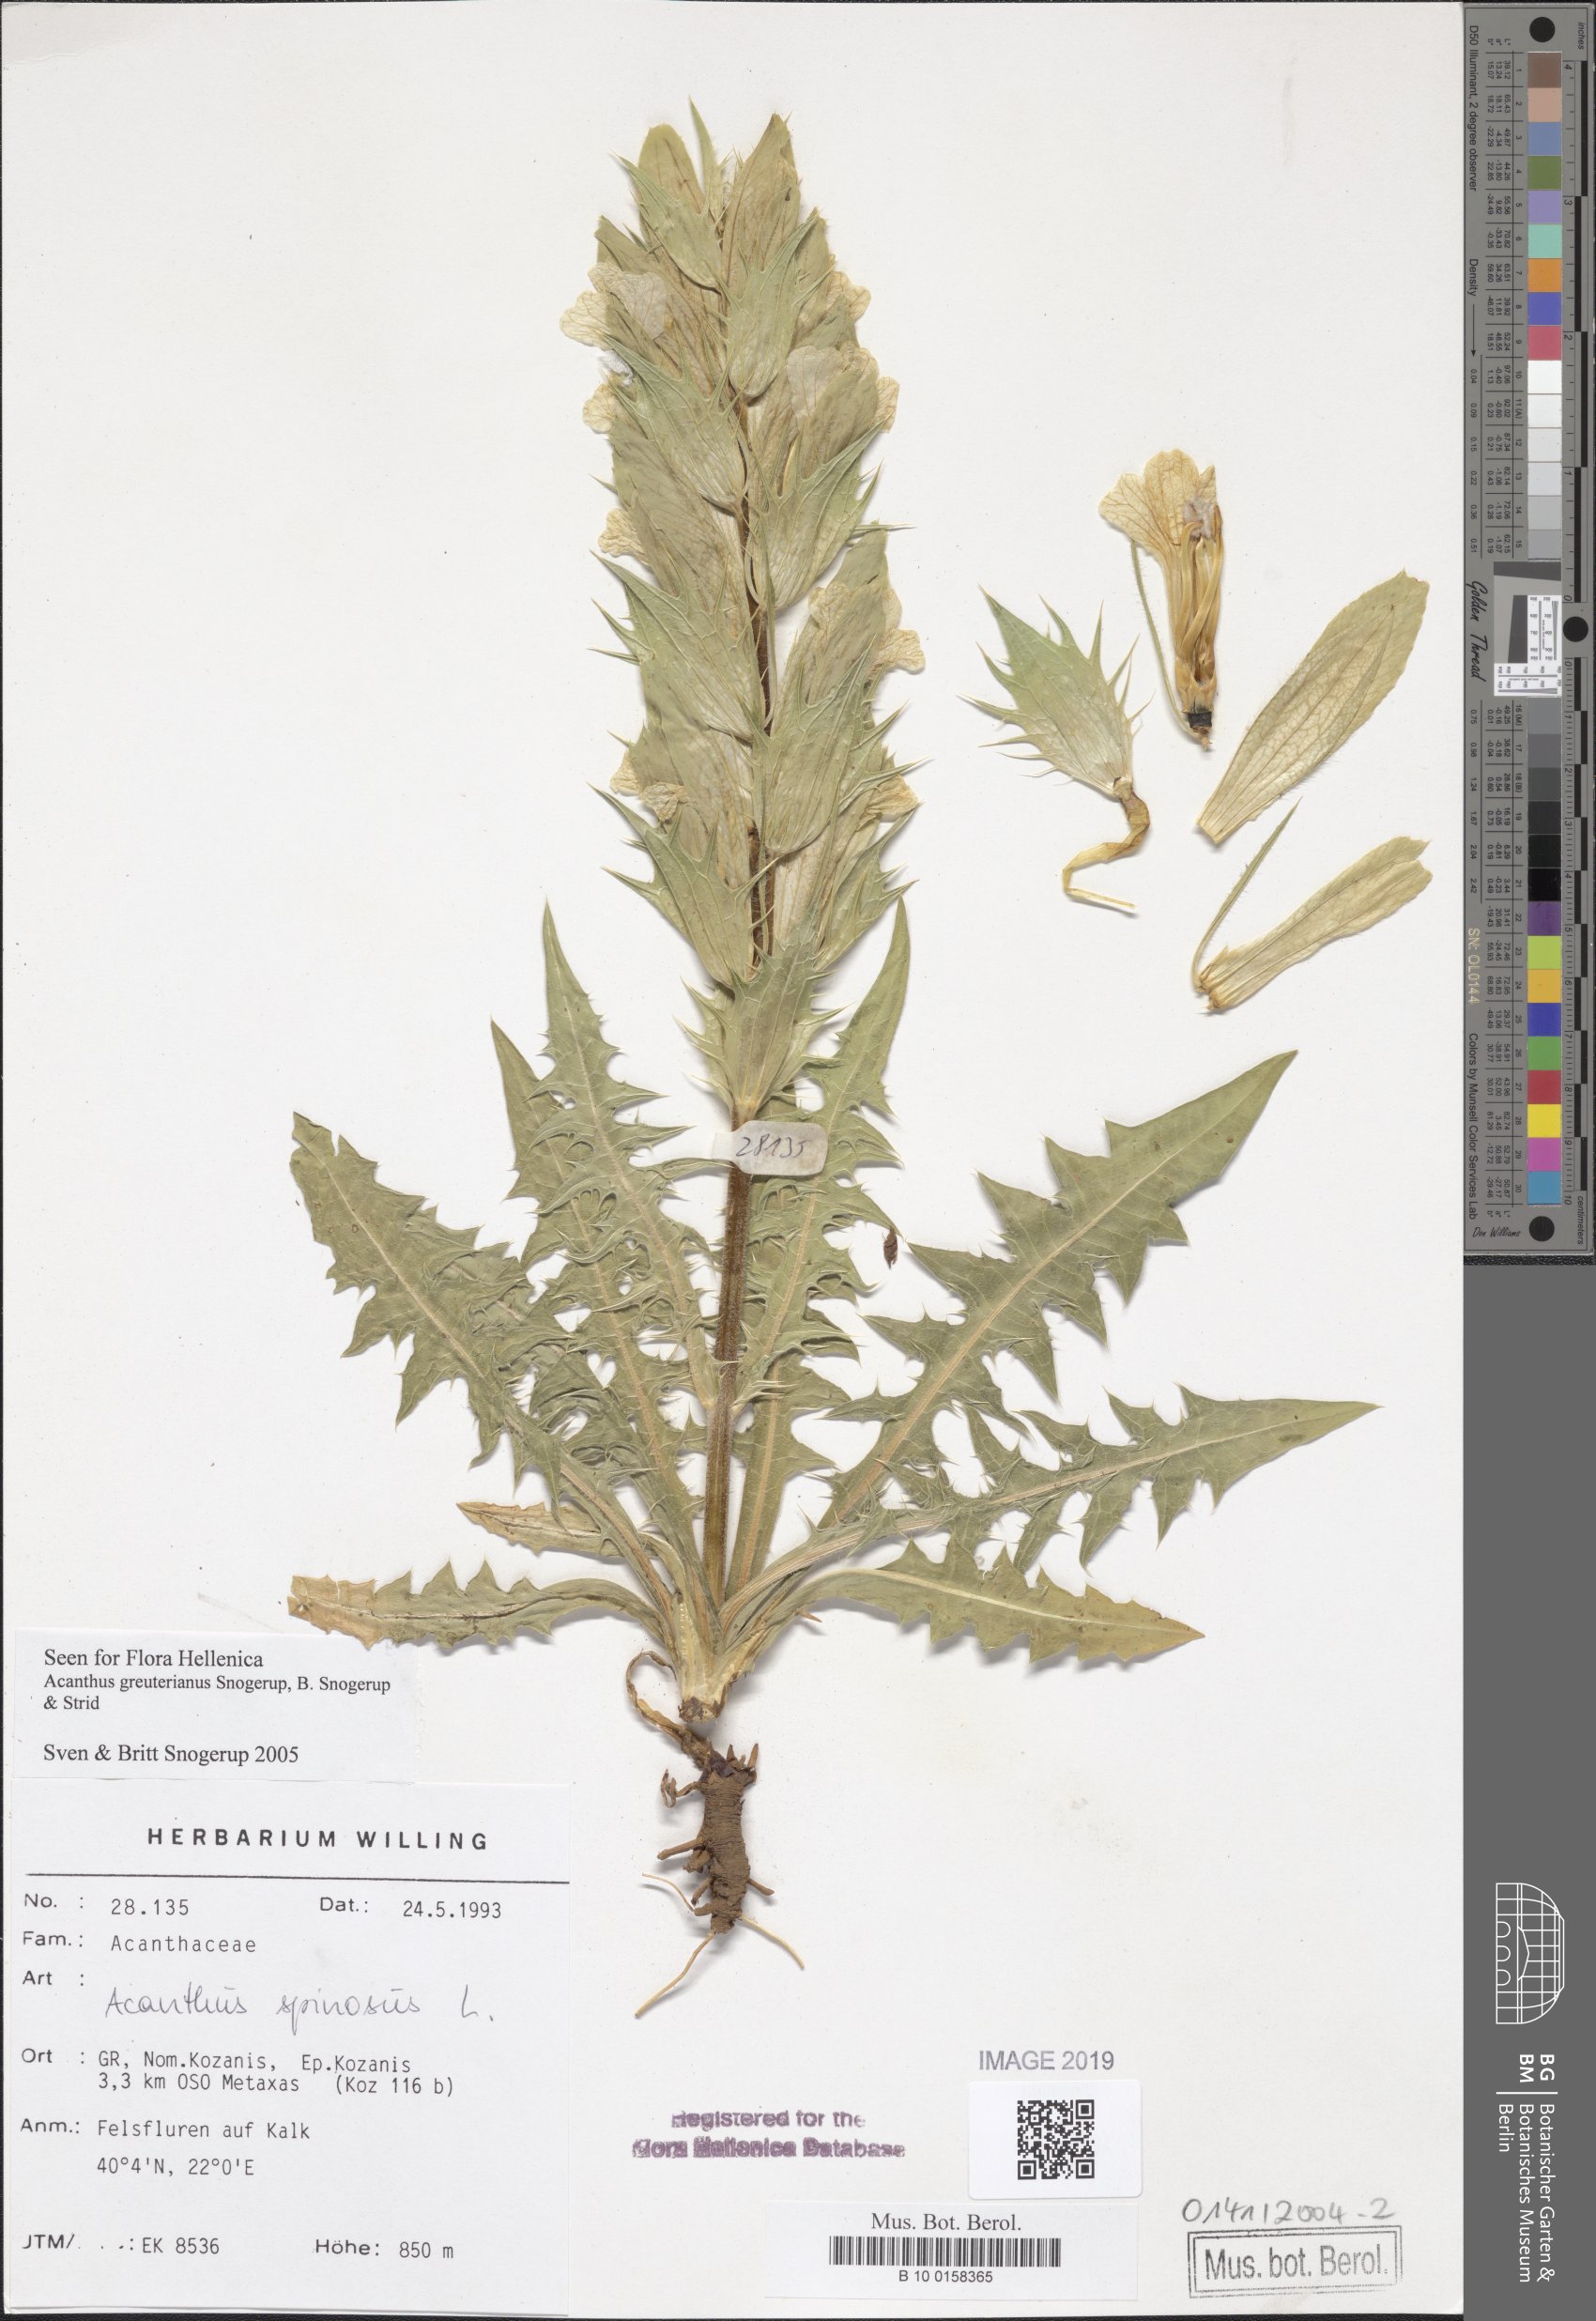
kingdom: Plantae
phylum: Tracheophyta
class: Magnoliopsida
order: Lamiales
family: Acanthaceae
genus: Acanthus
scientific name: Acanthus greuterianus
